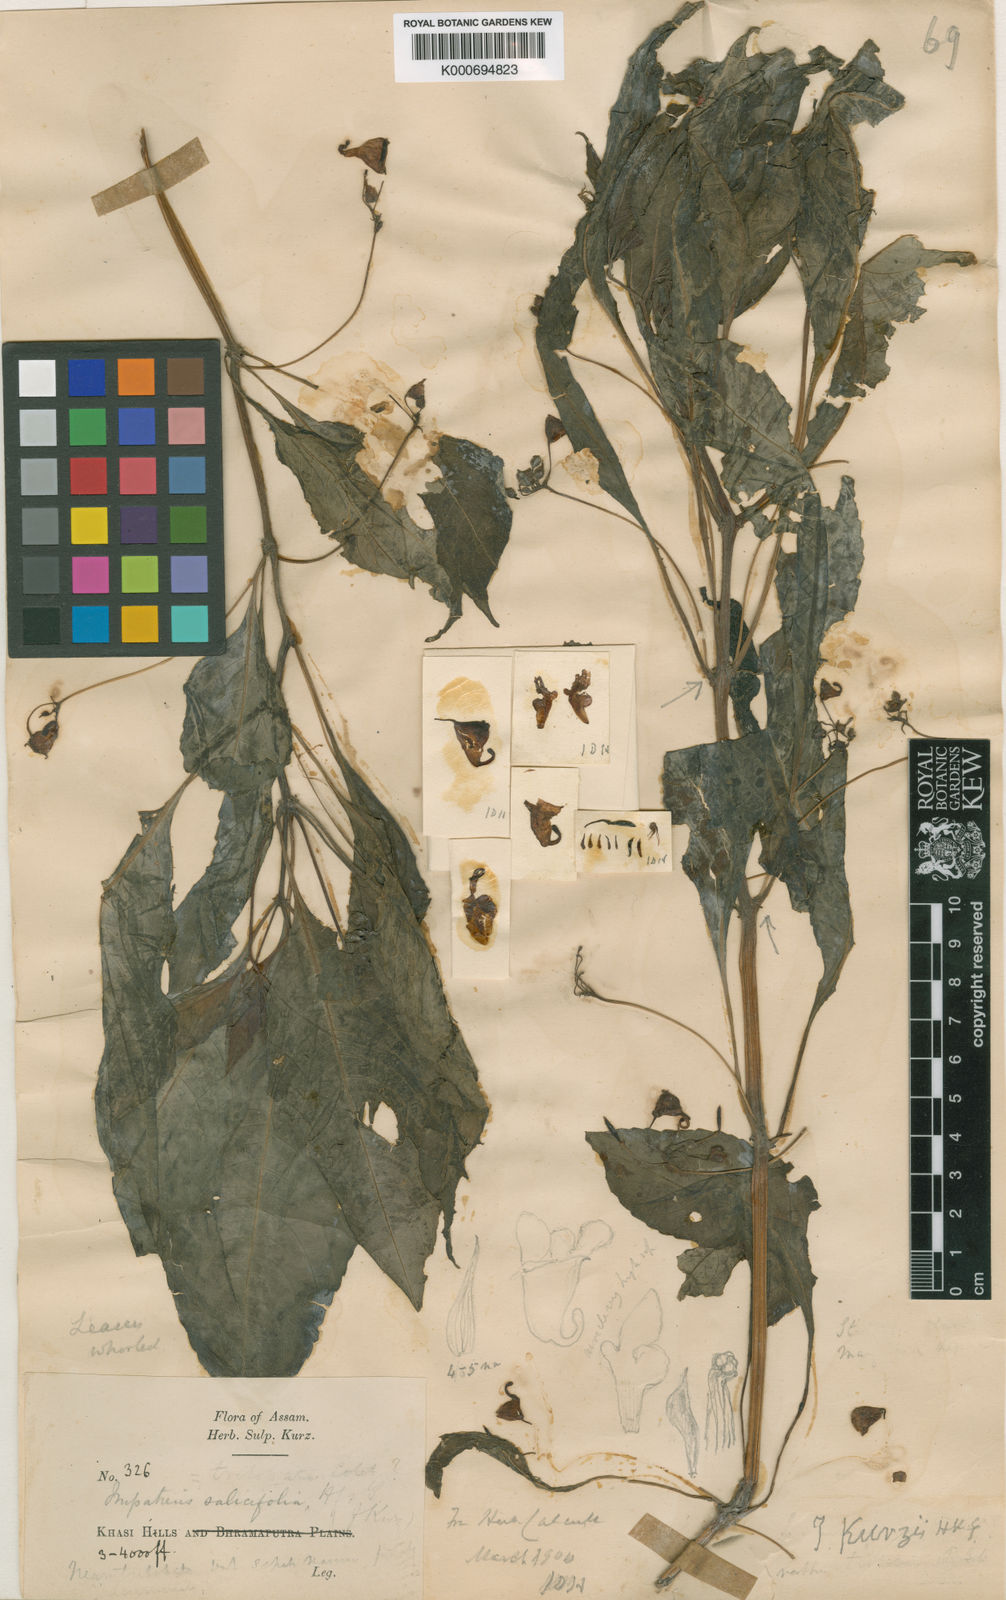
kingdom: Plantae
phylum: Tracheophyta
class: Magnoliopsida
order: Ericales
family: Balsaminaceae
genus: Impatiens
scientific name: Impatiens
